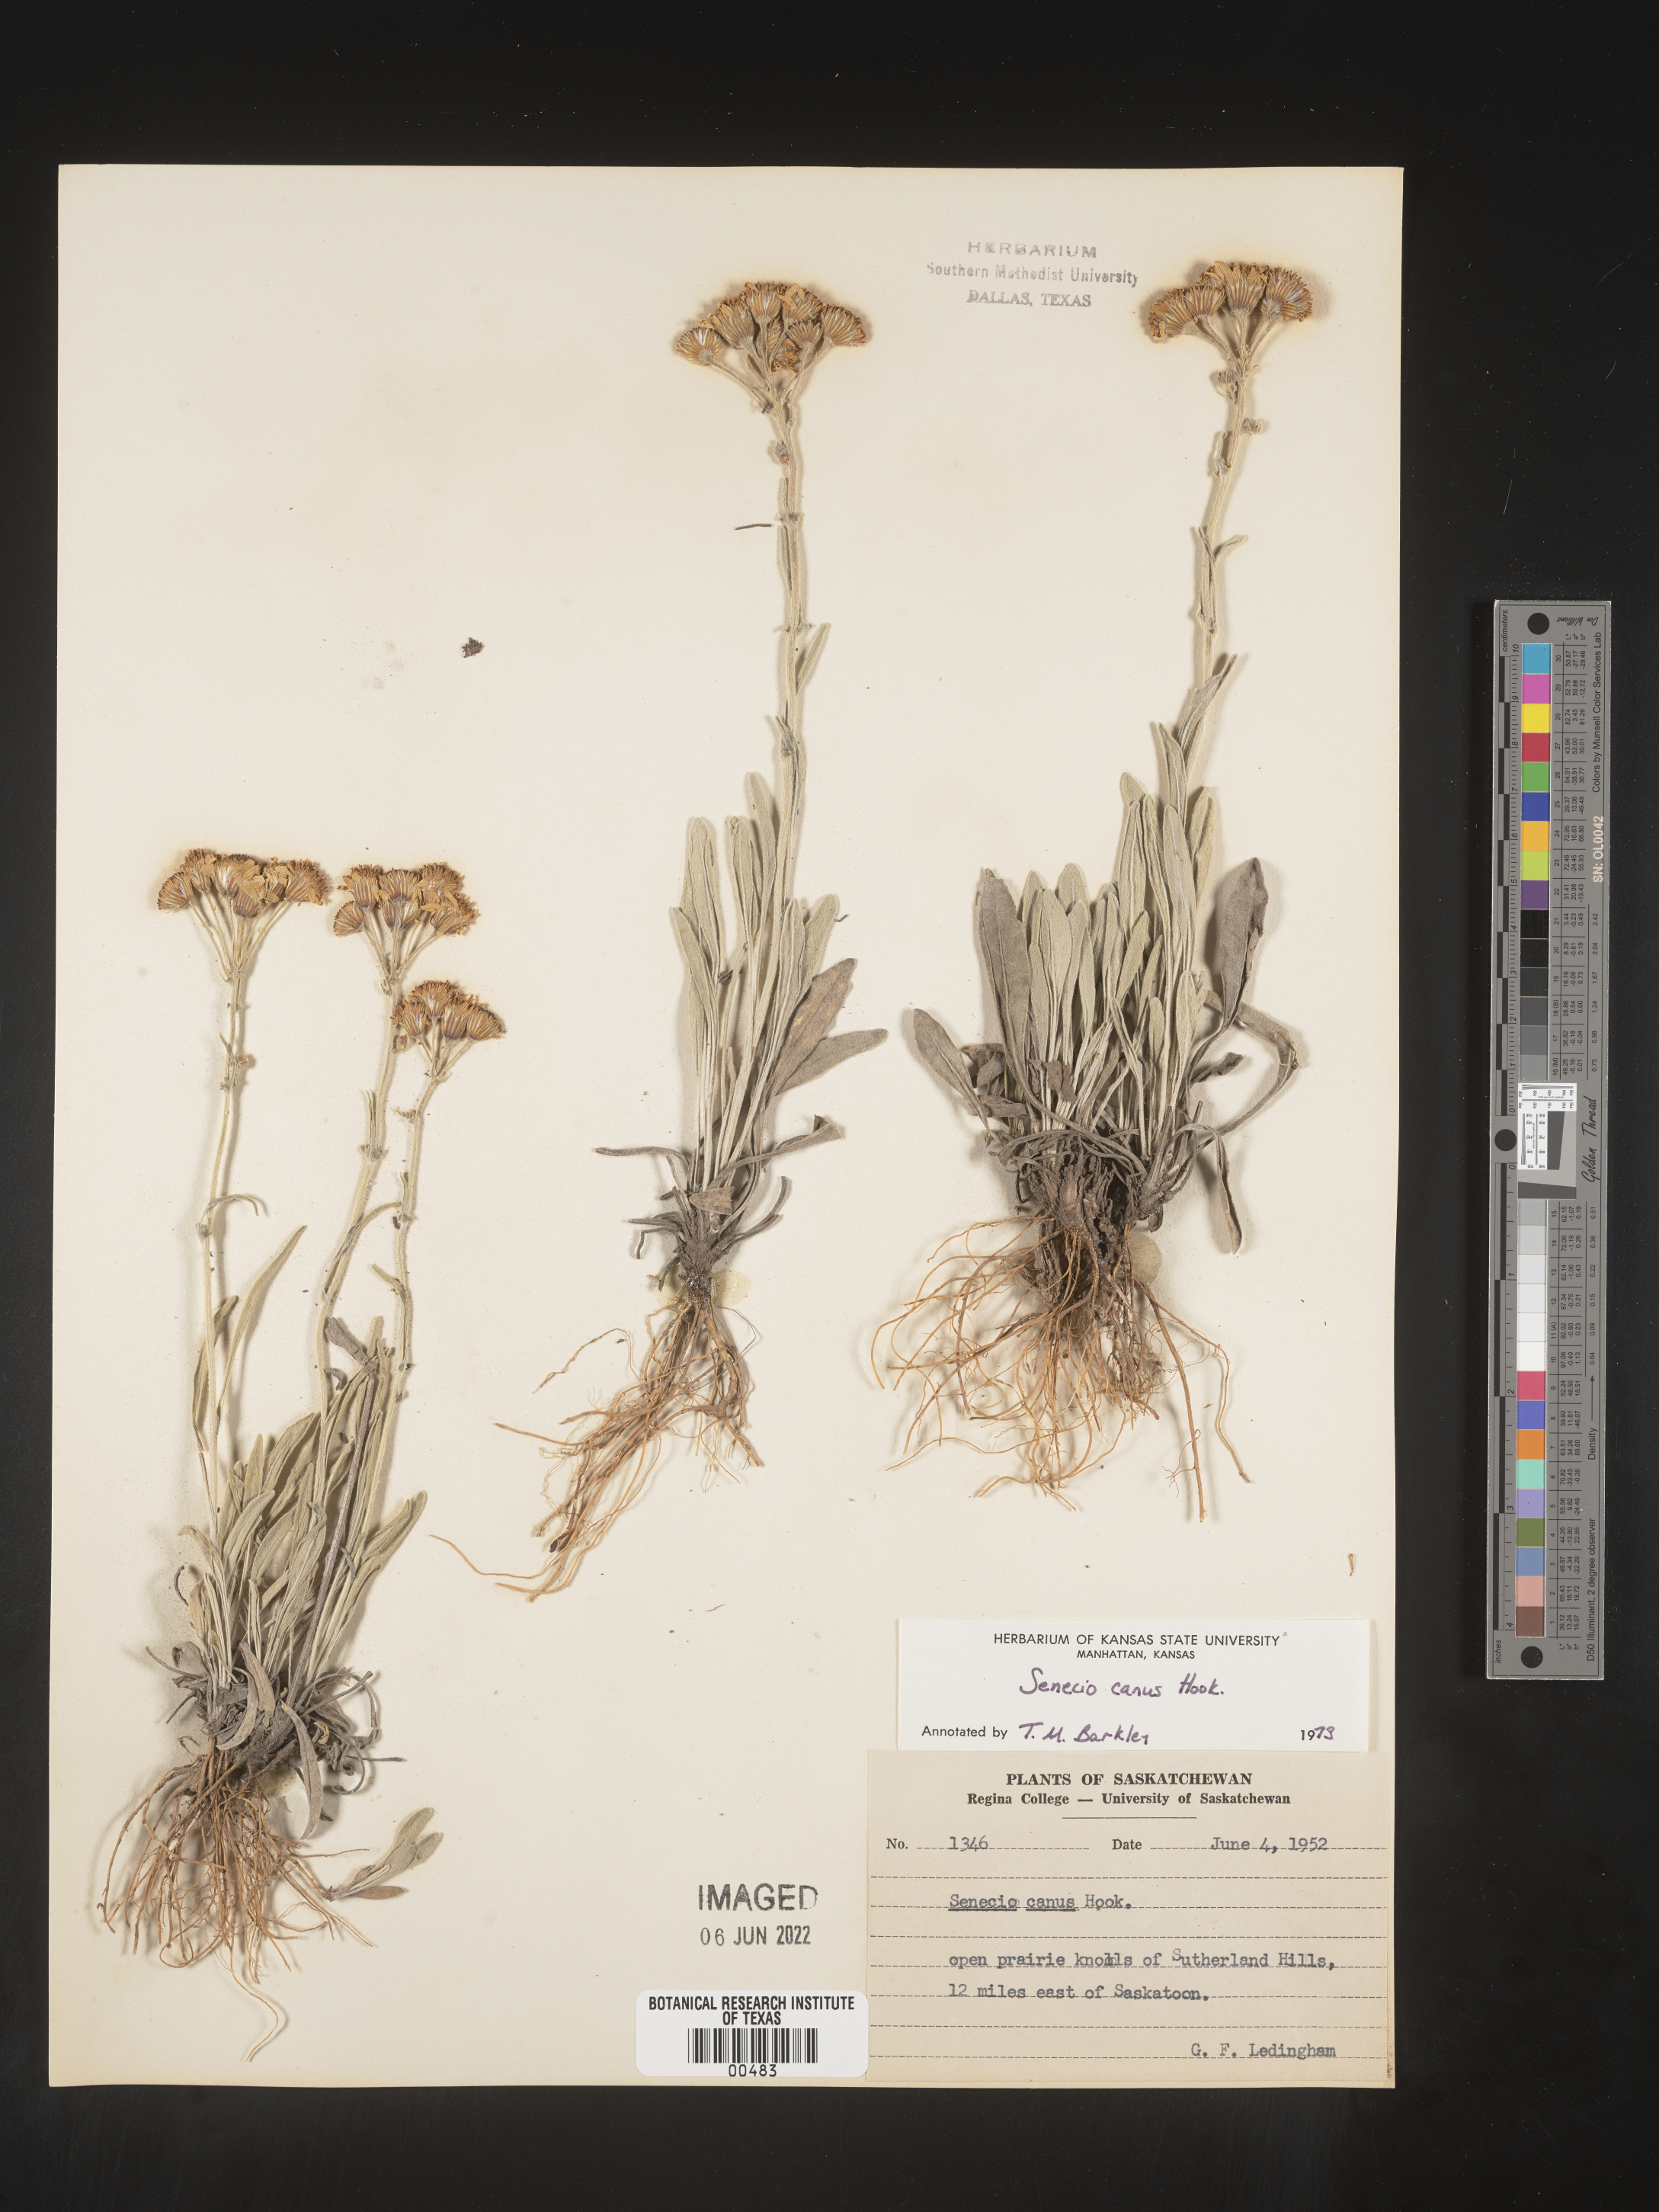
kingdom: Plantae
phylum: Tracheophyta
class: Magnoliopsida
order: Asterales
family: Asteraceae
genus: Packera
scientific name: Packera cana
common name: Woolly groundsel
